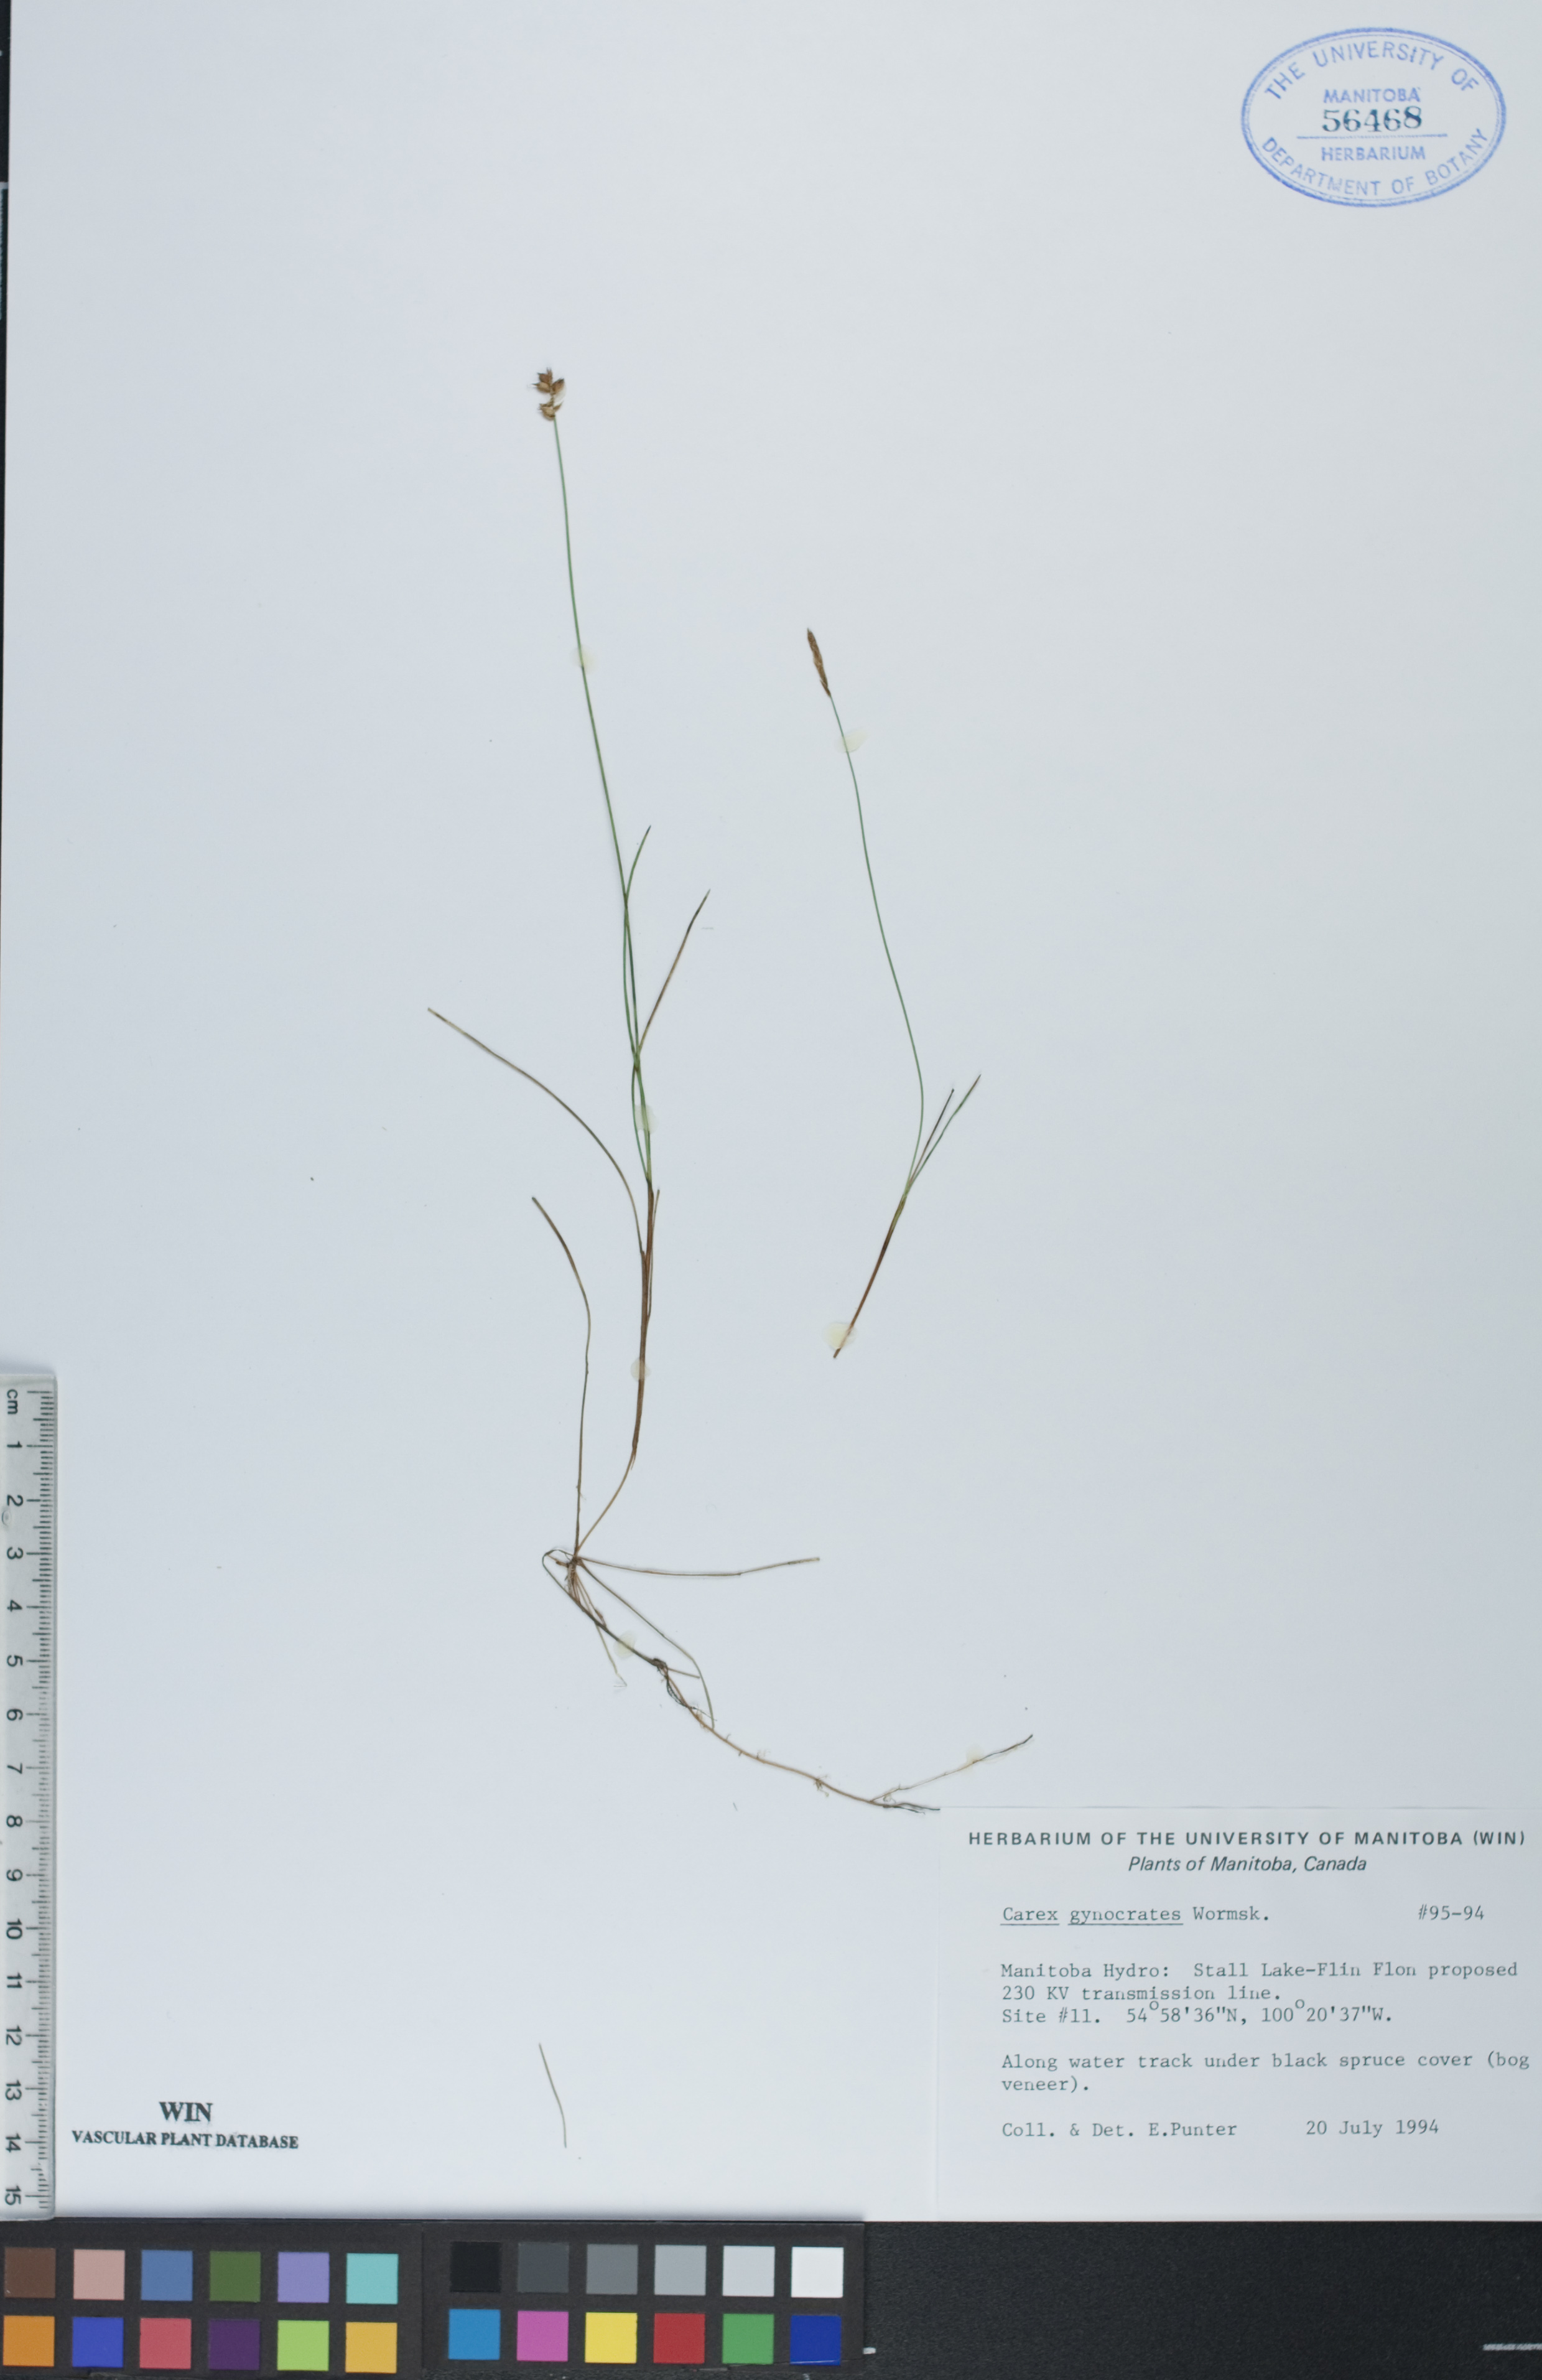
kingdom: Plantae
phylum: Tracheophyta
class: Liliopsida
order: Poales
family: Cyperaceae
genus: Carex
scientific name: Carex nardina
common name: Nard sedge
